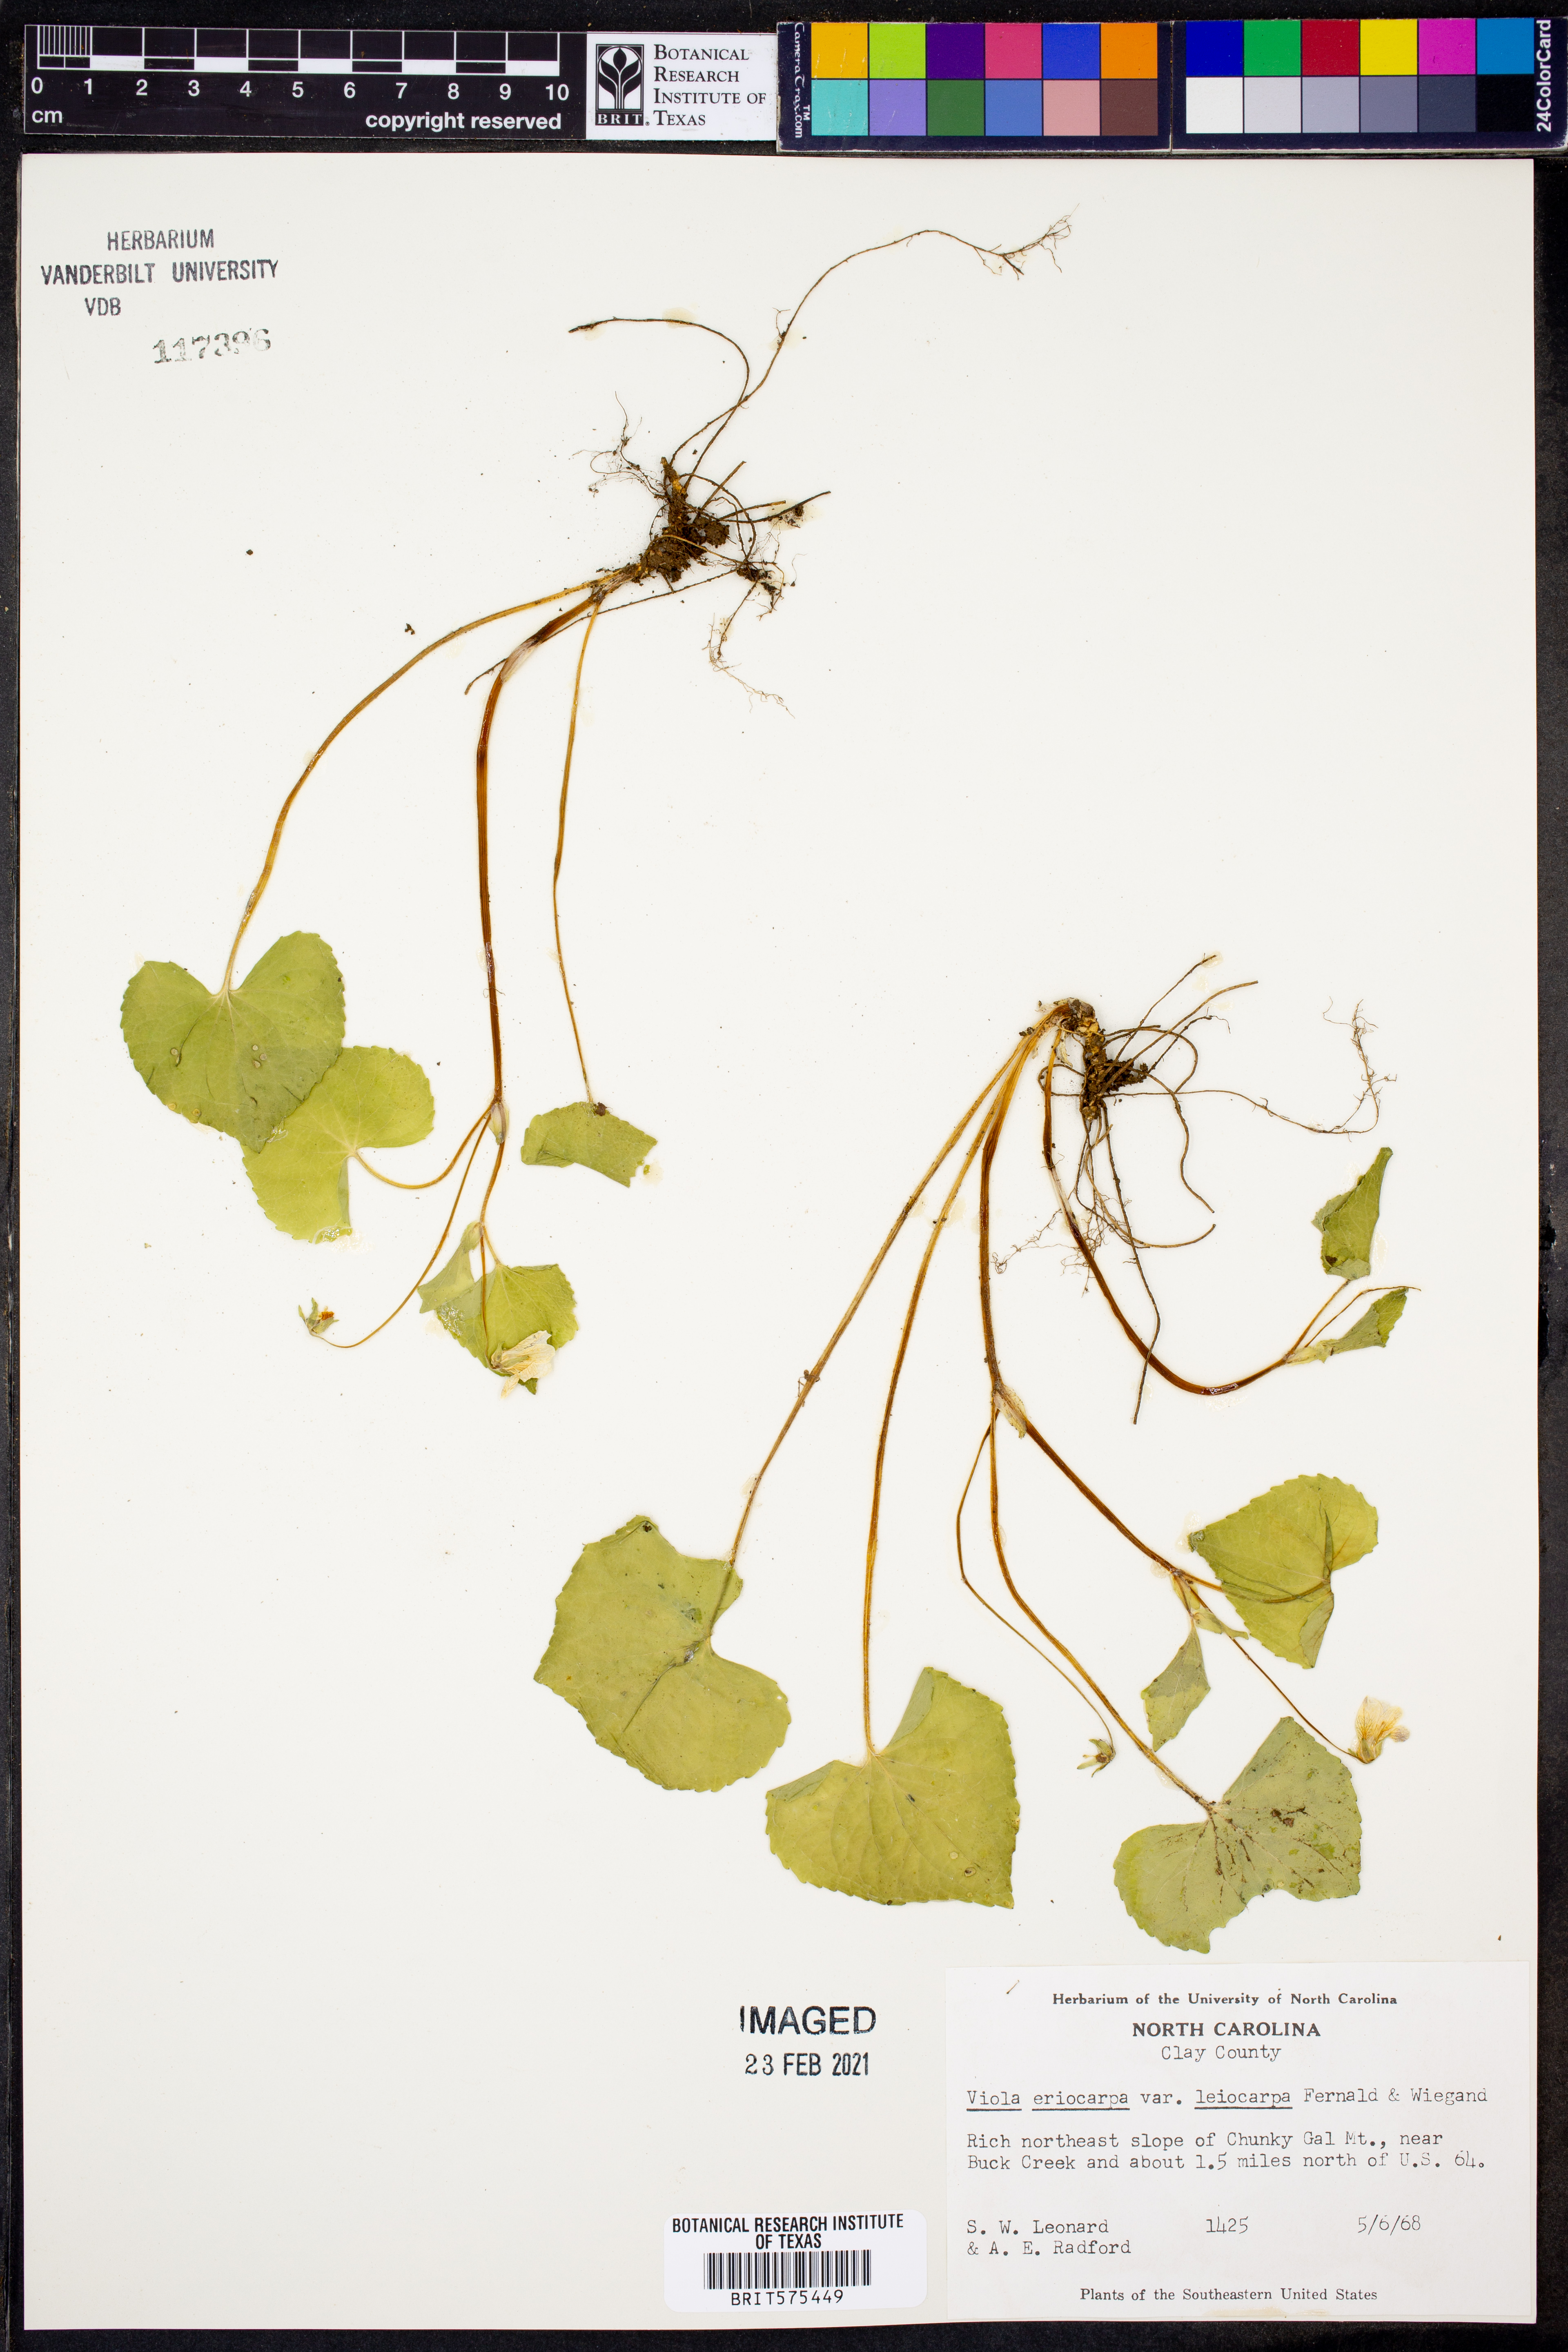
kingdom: Plantae
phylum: Tracheophyta
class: Magnoliopsida
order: Malpighiales
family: Violaceae
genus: Viola
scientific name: Viola eriocarpa
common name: Smooth yellow violet
